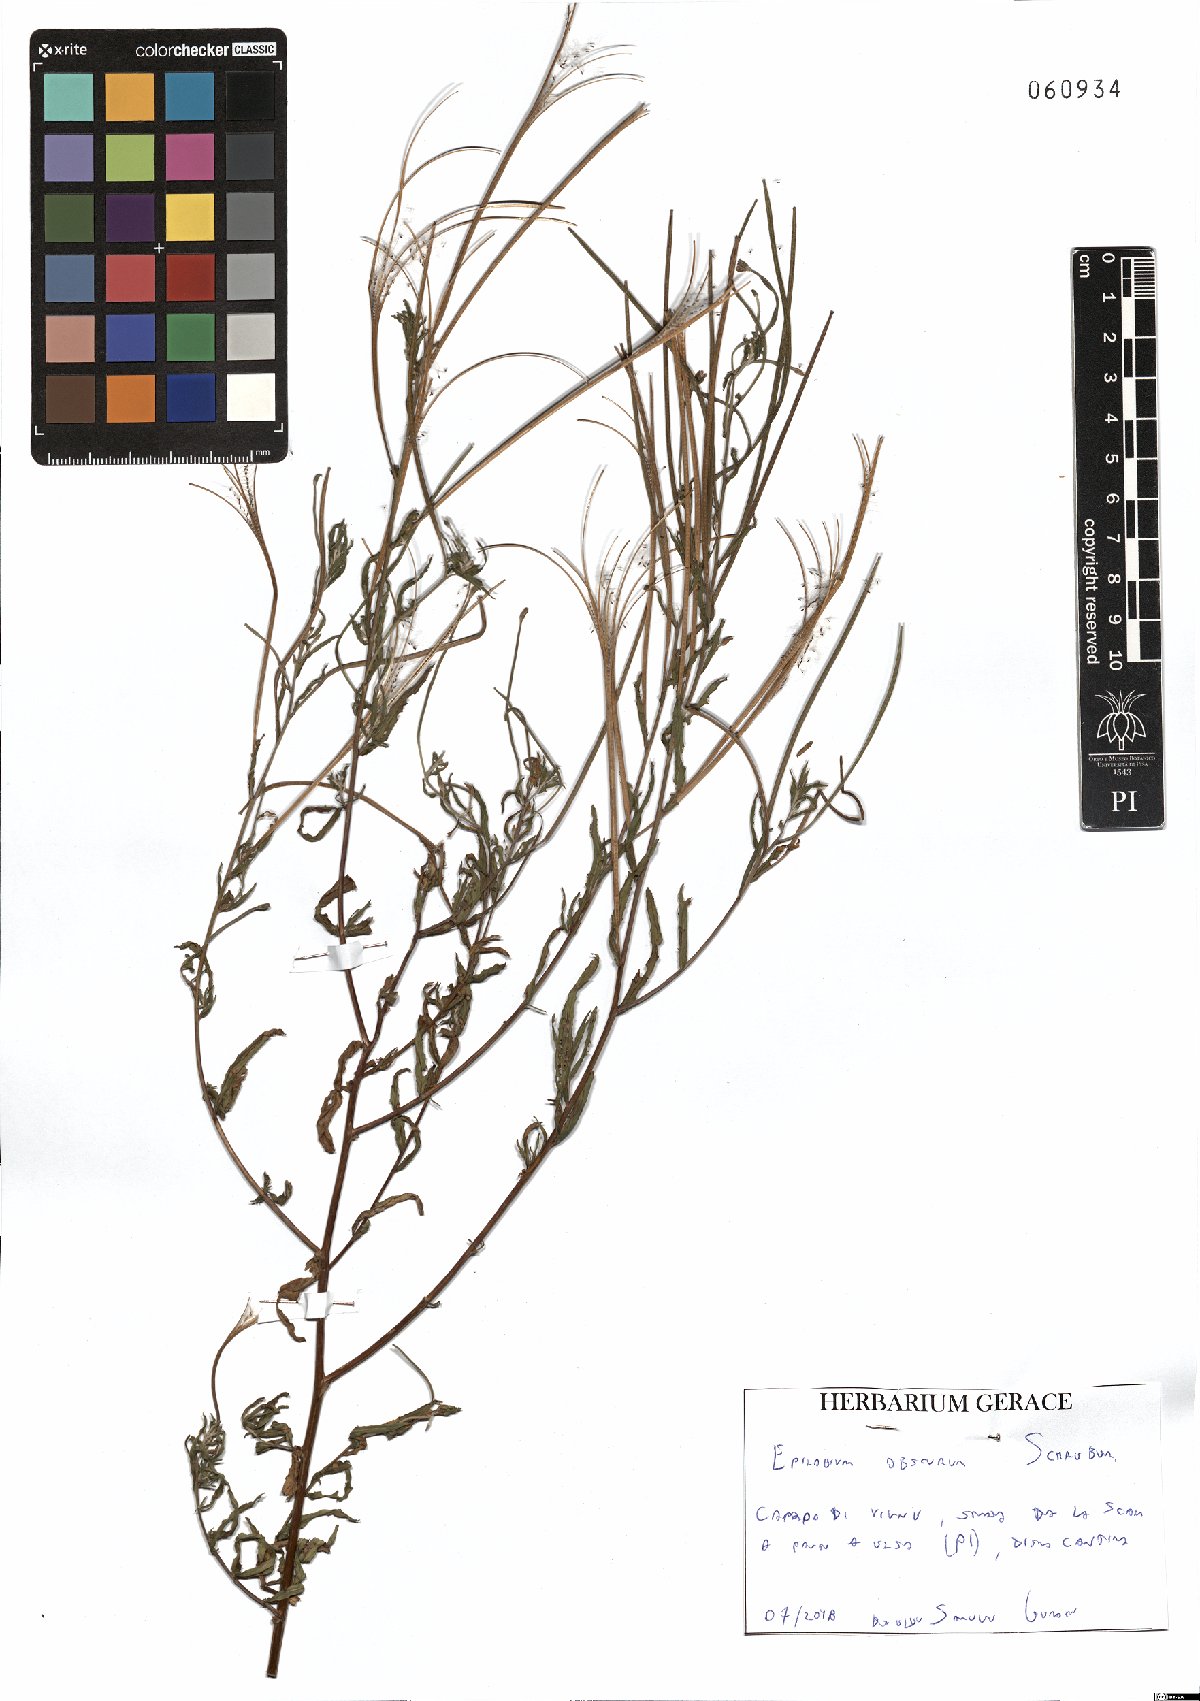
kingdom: Plantae
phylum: Tracheophyta
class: Magnoliopsida
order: Myrtales
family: Onagraceae
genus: Epilobium
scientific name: Epilobium obscurum
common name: Short-fruited willowherb
